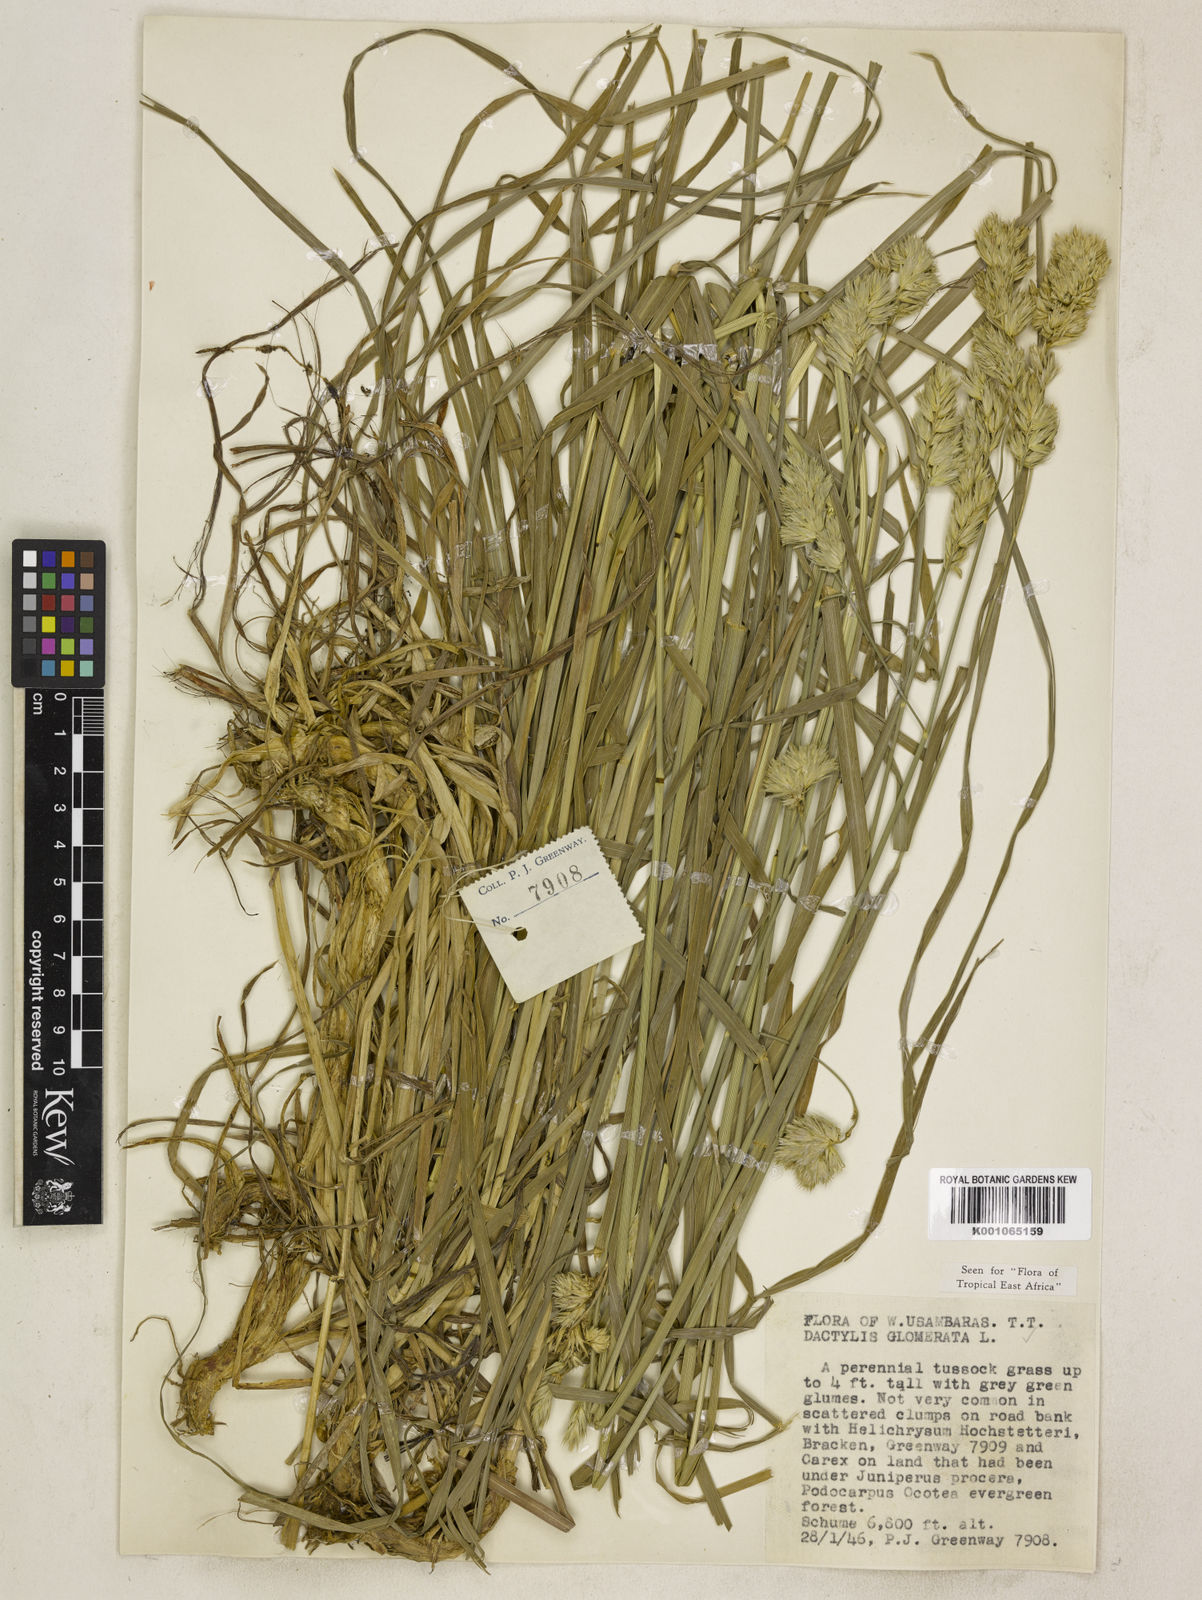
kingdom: Plantae
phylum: Tracheophyta
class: Liliopsida
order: Poales
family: Poaceae
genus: Dactylis
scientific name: Dactylis glomerata
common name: Orchardgrass
